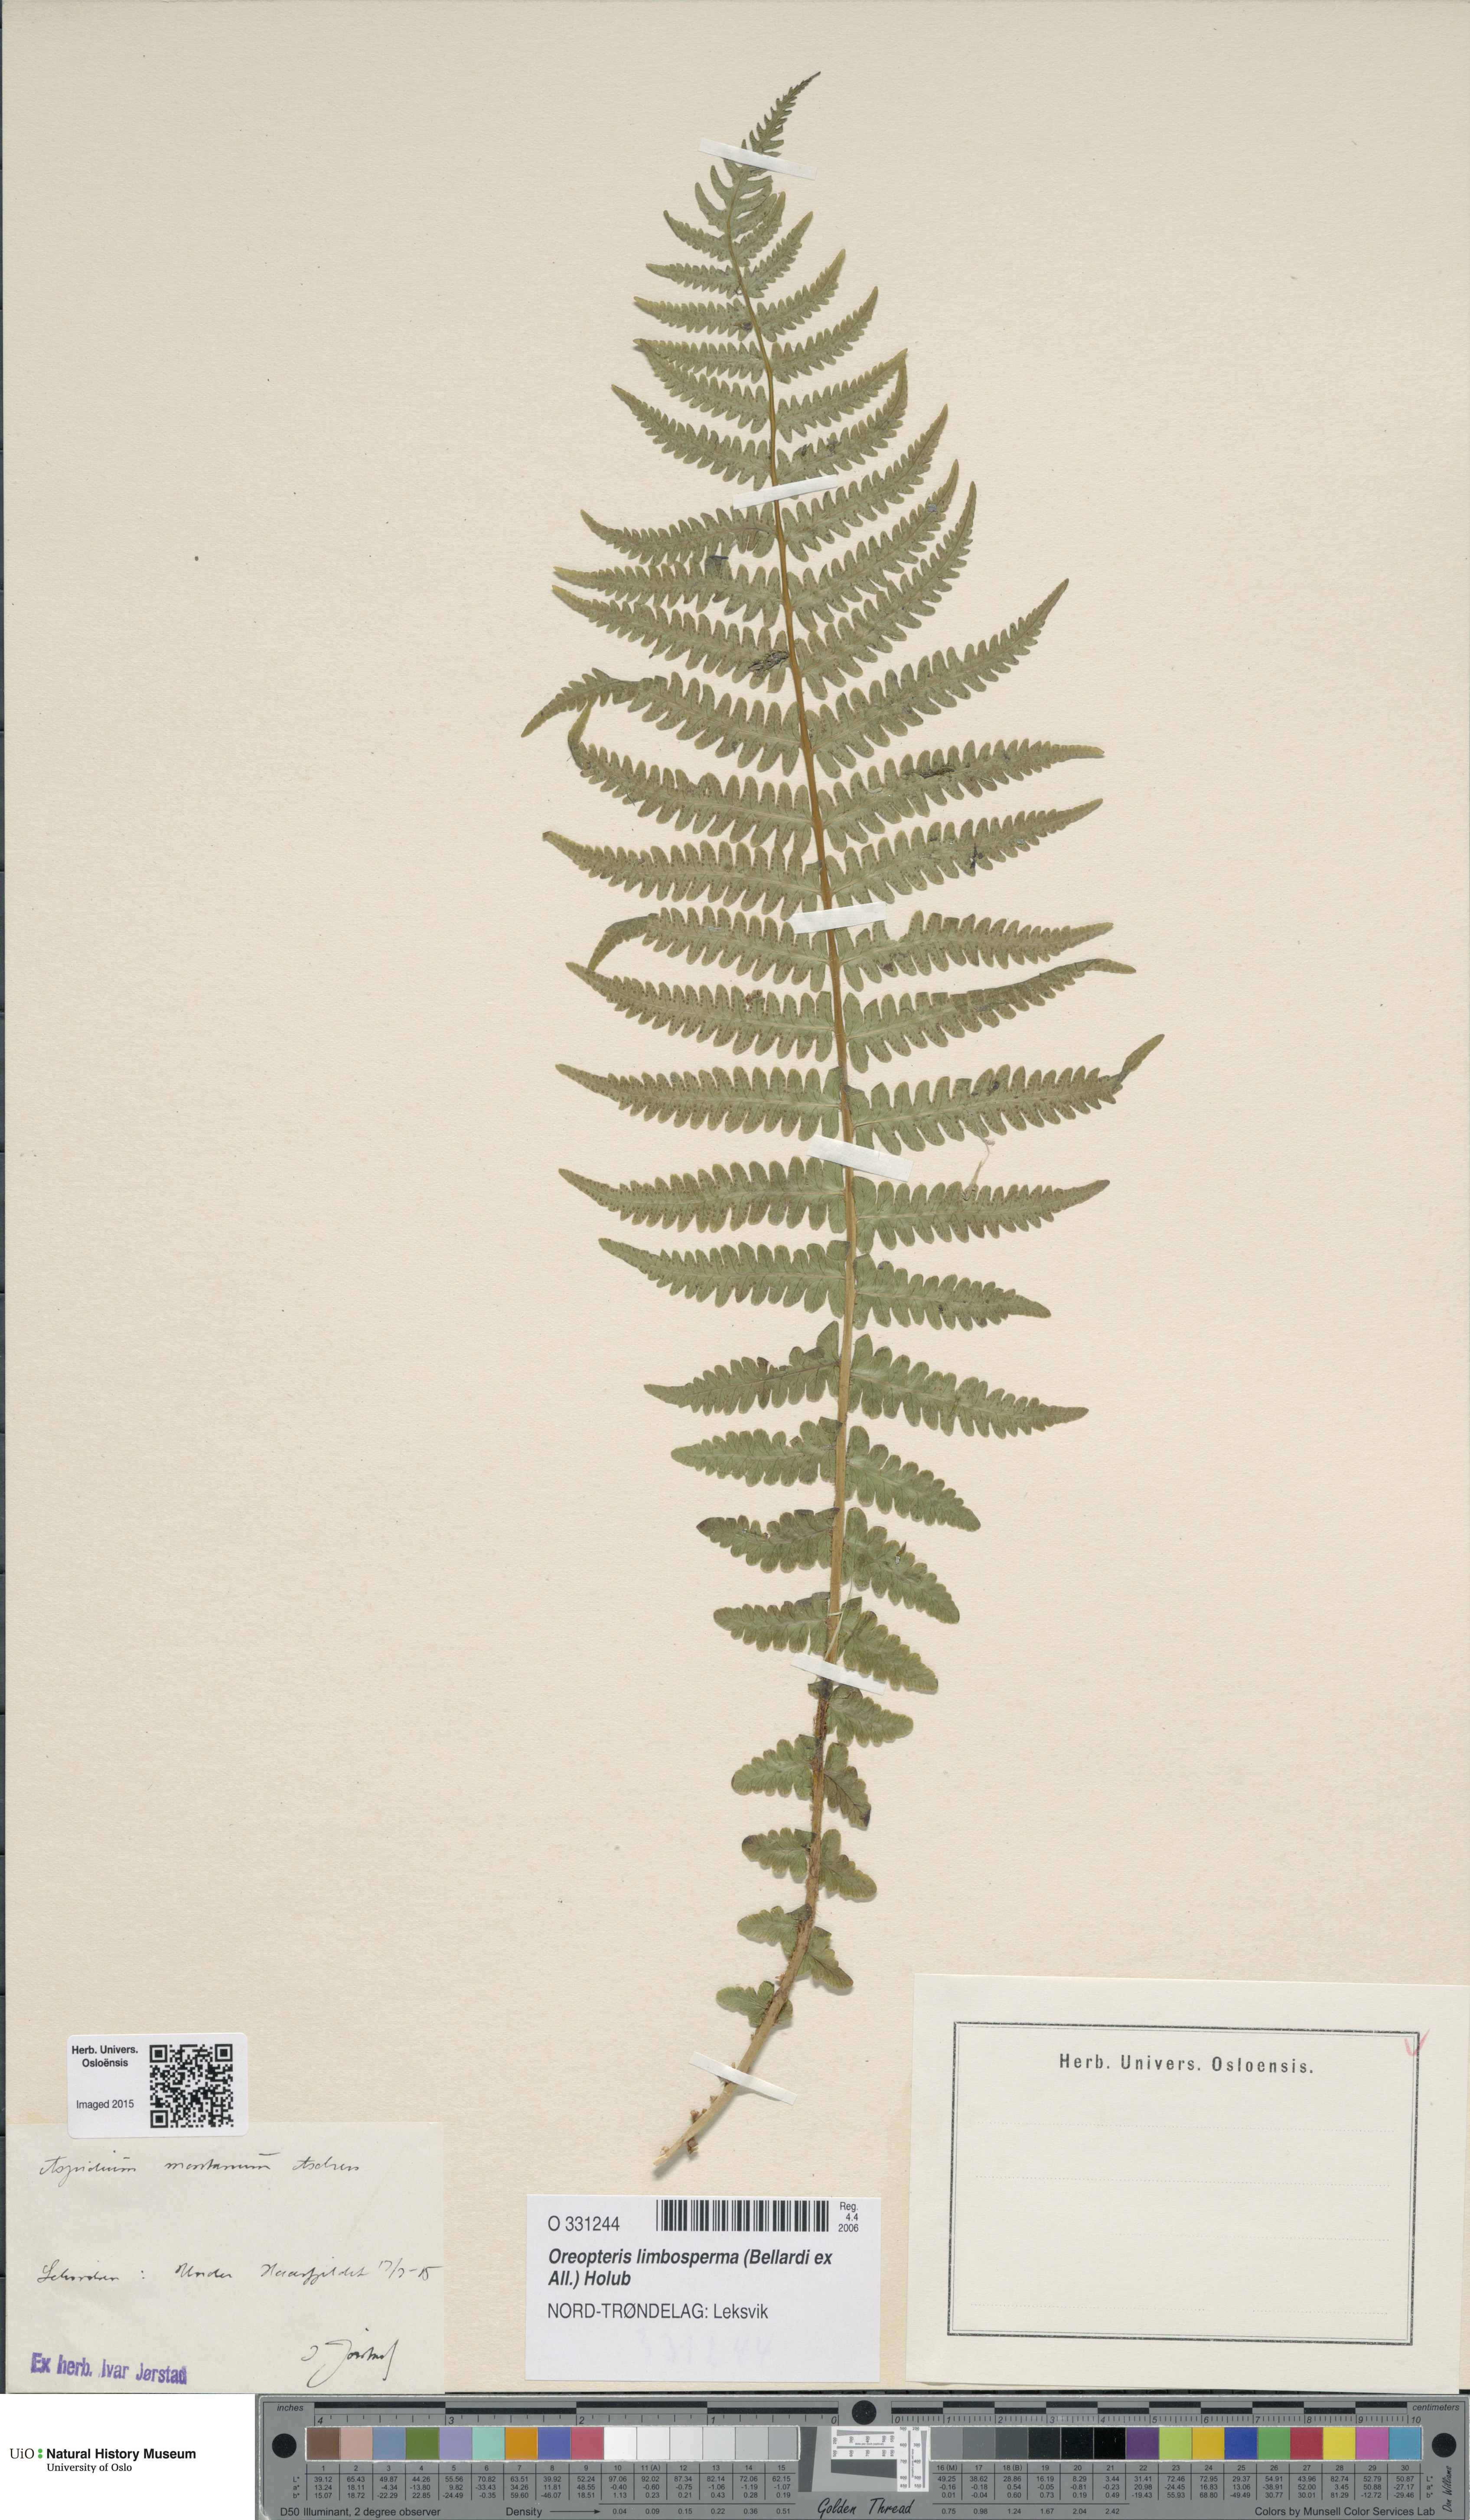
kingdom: Plantae
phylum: Tracheophyta
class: Polypodiopsida
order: Polypodiales
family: Thelypteridaceae
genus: Oreopteris
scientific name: Oreopteris limbosperma
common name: Lemon-scented fern
